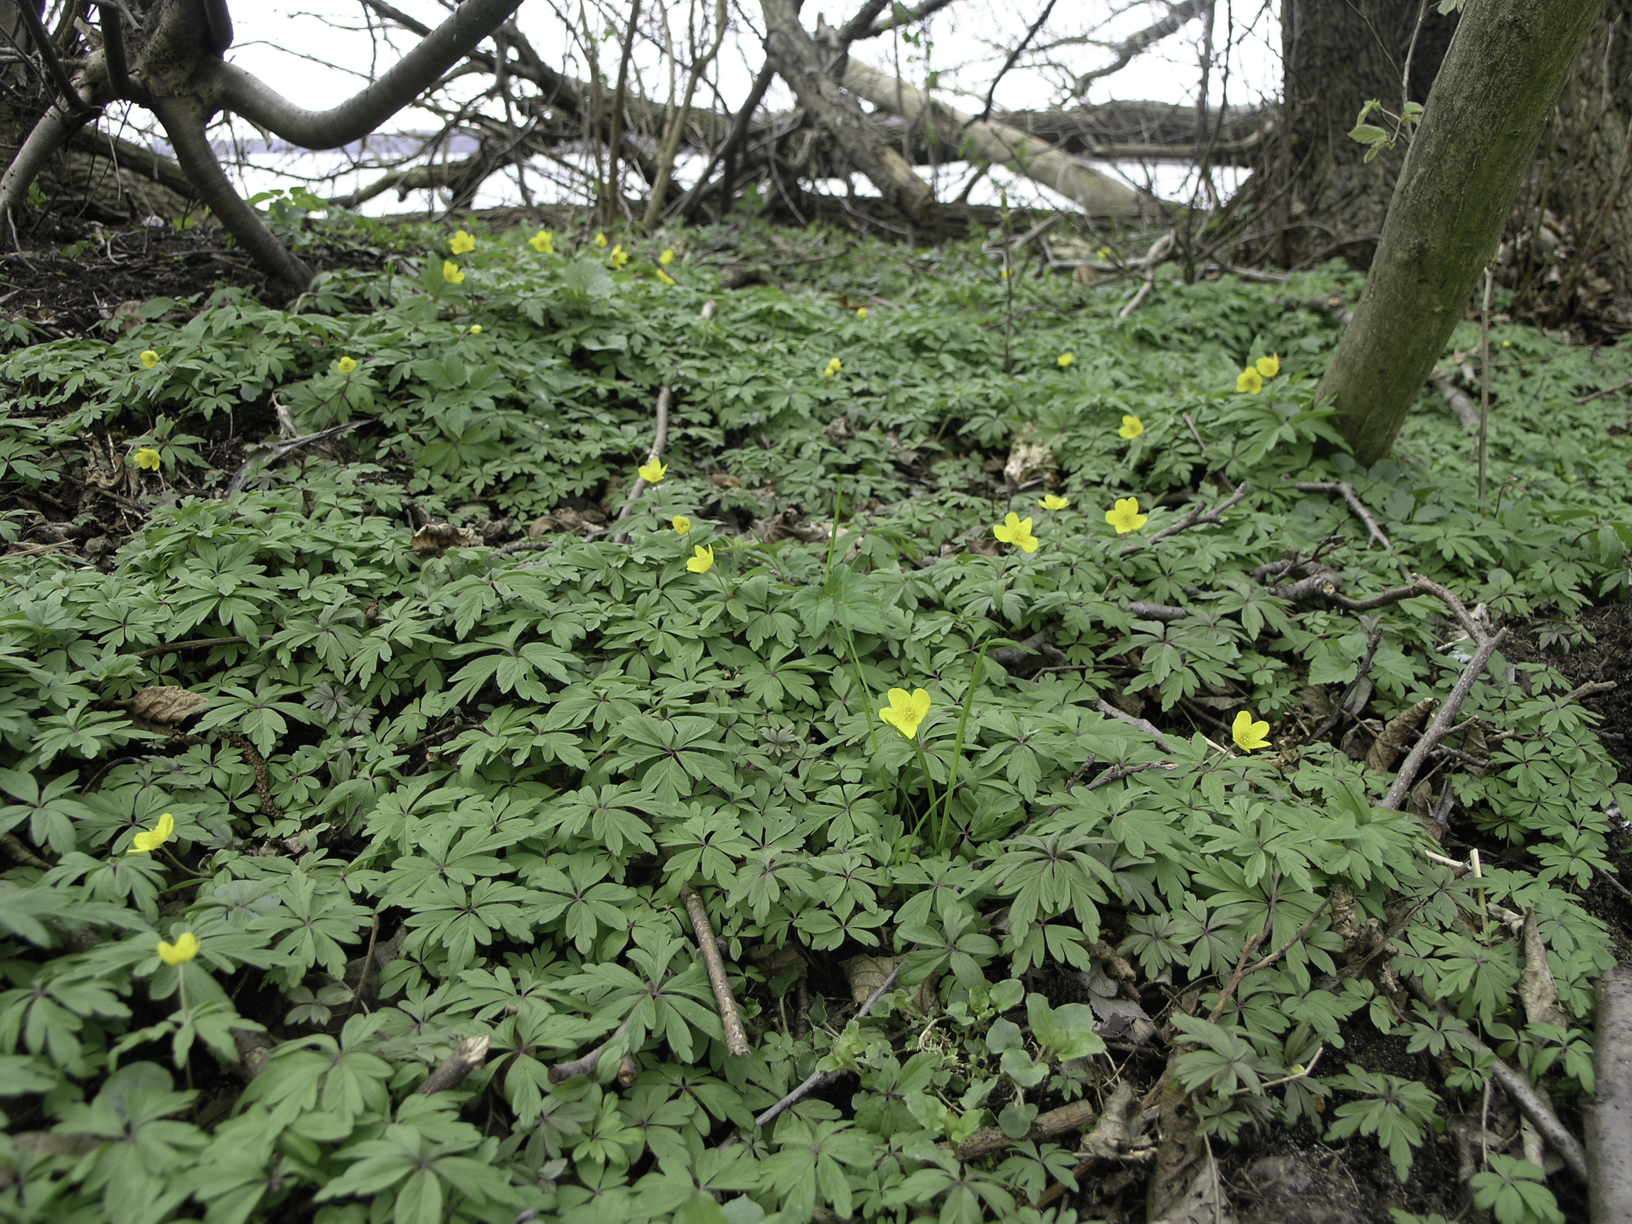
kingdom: Plantae
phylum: Tracheophyta
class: Magnoliopsida
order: Ranunculales
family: Ranunculaceae
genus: Anemone
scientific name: Anemone ranunculoides
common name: Yellow anemone
